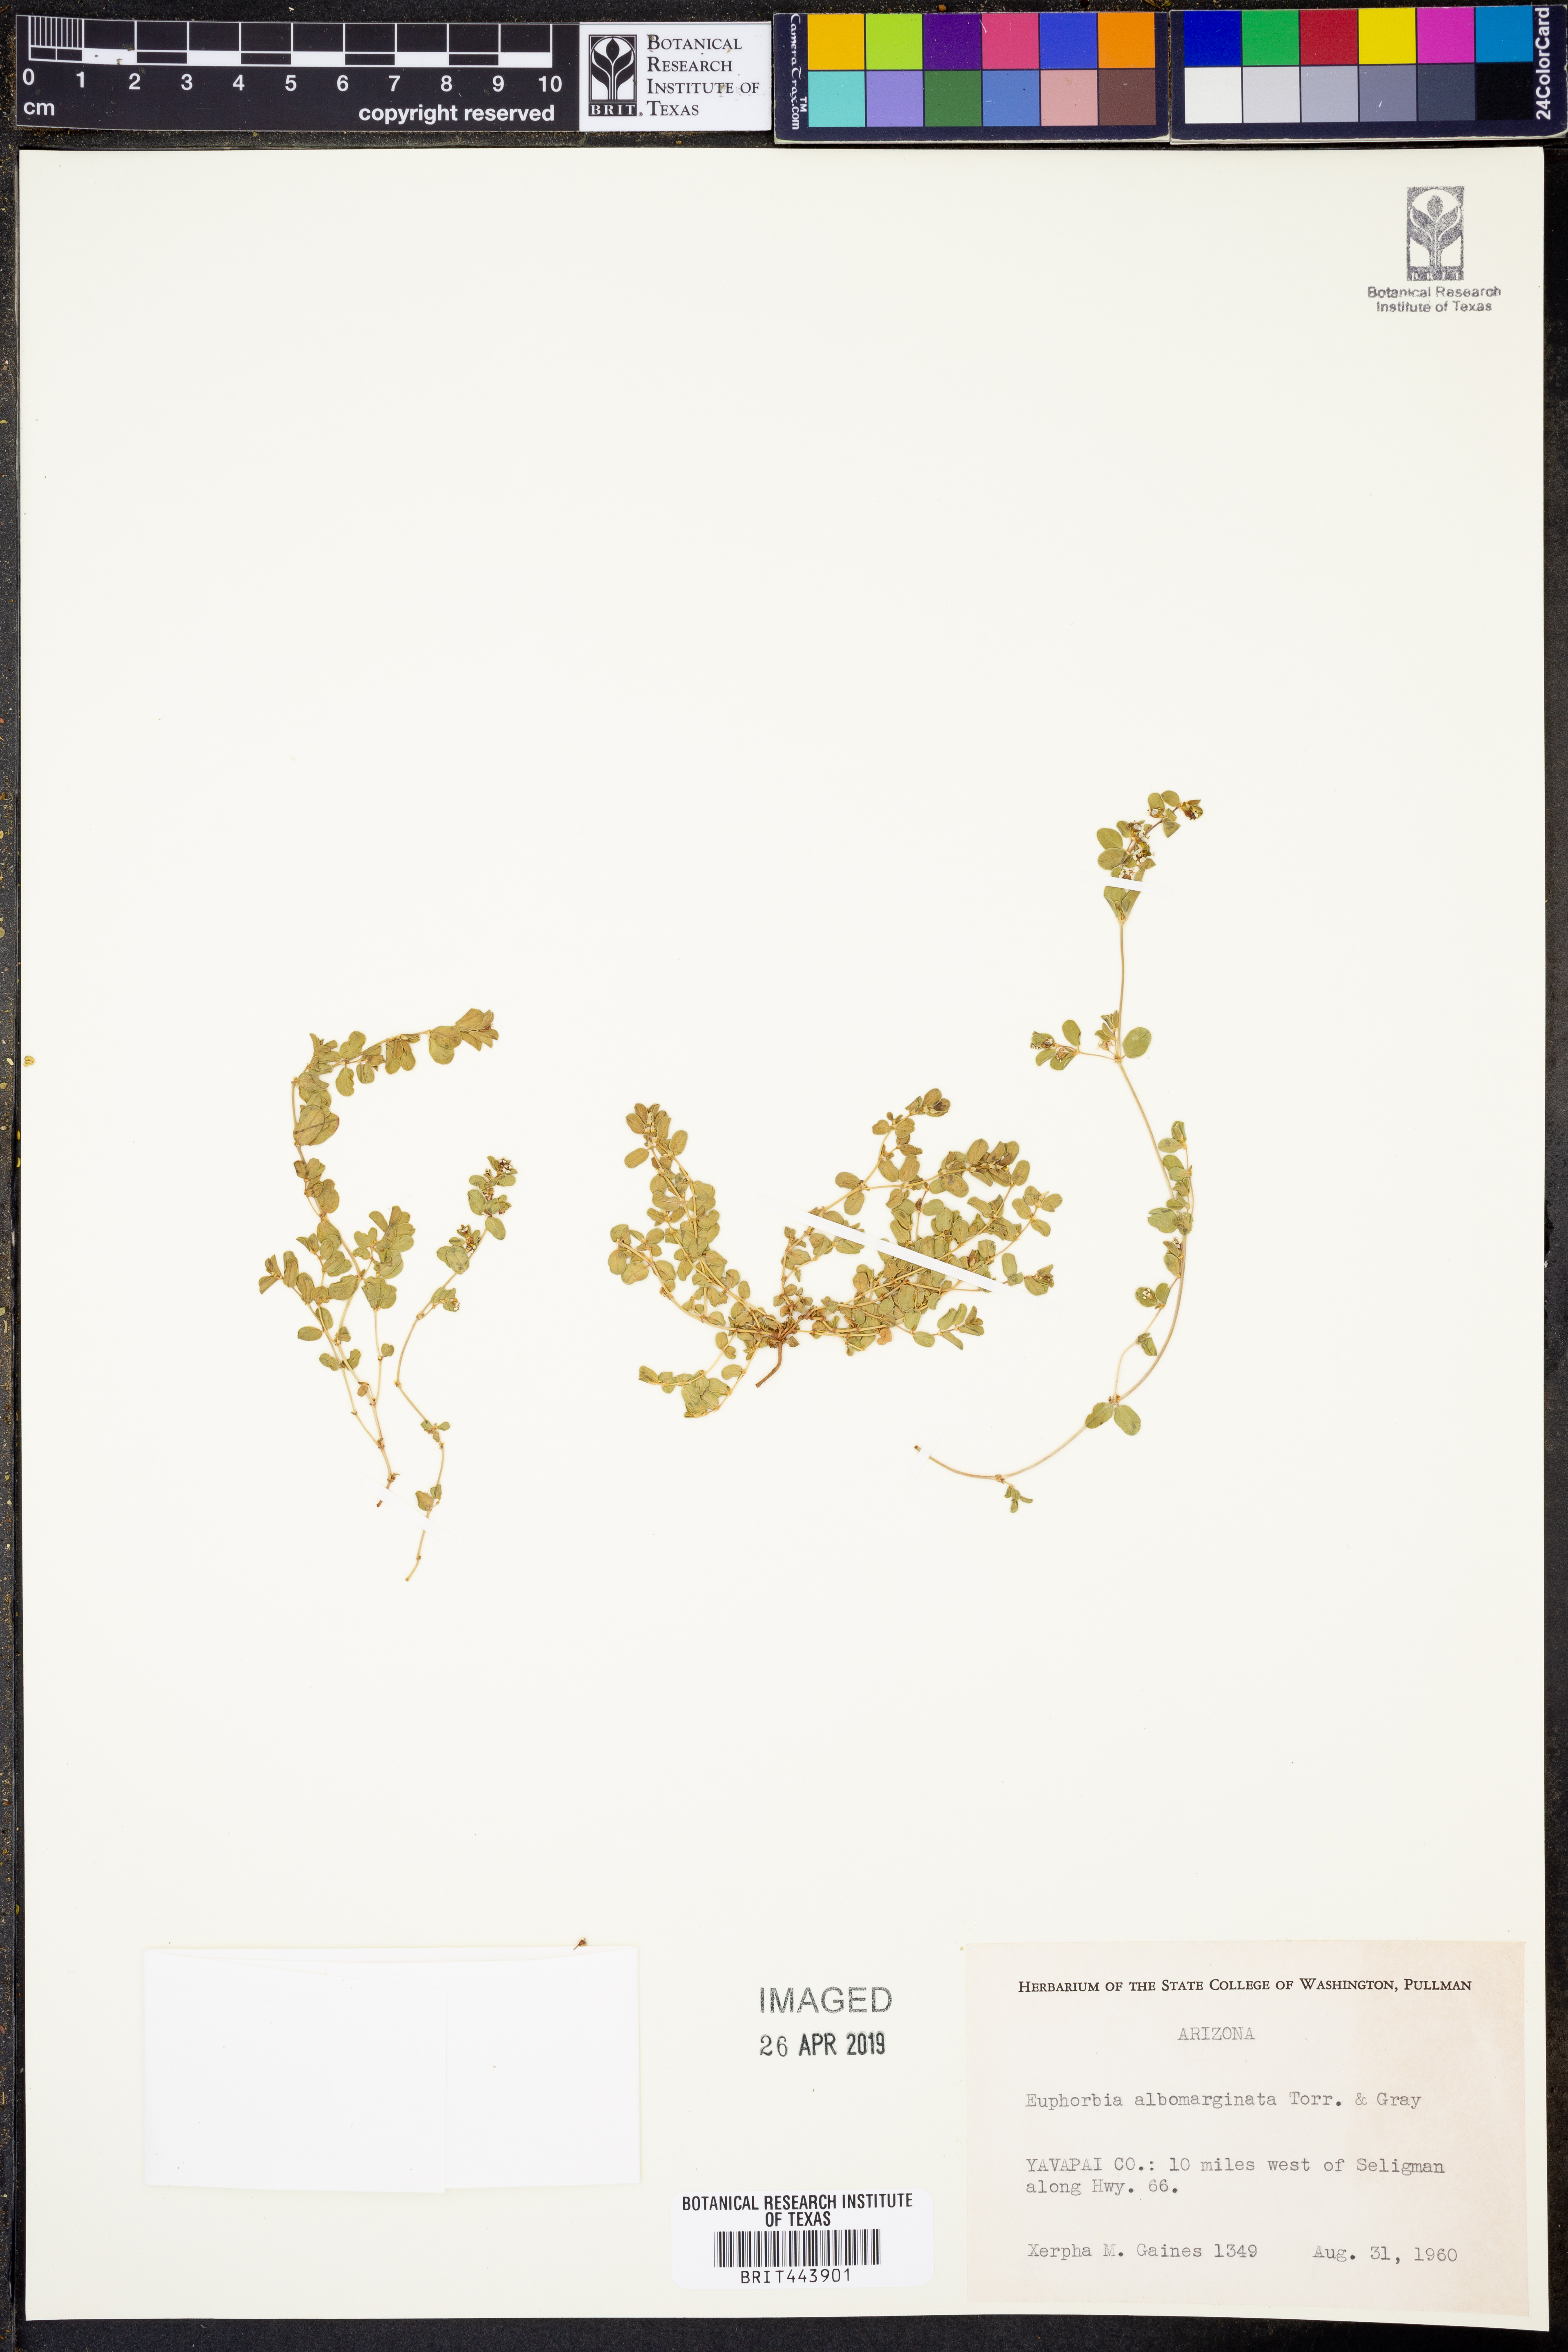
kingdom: Plantae
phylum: Tracheophyta
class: Magnoliopsida
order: Malpighiales
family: Euphorbiaceae
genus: Euphorbia
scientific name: Euphorbia albomarginata
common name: Whitemargin sandmat
